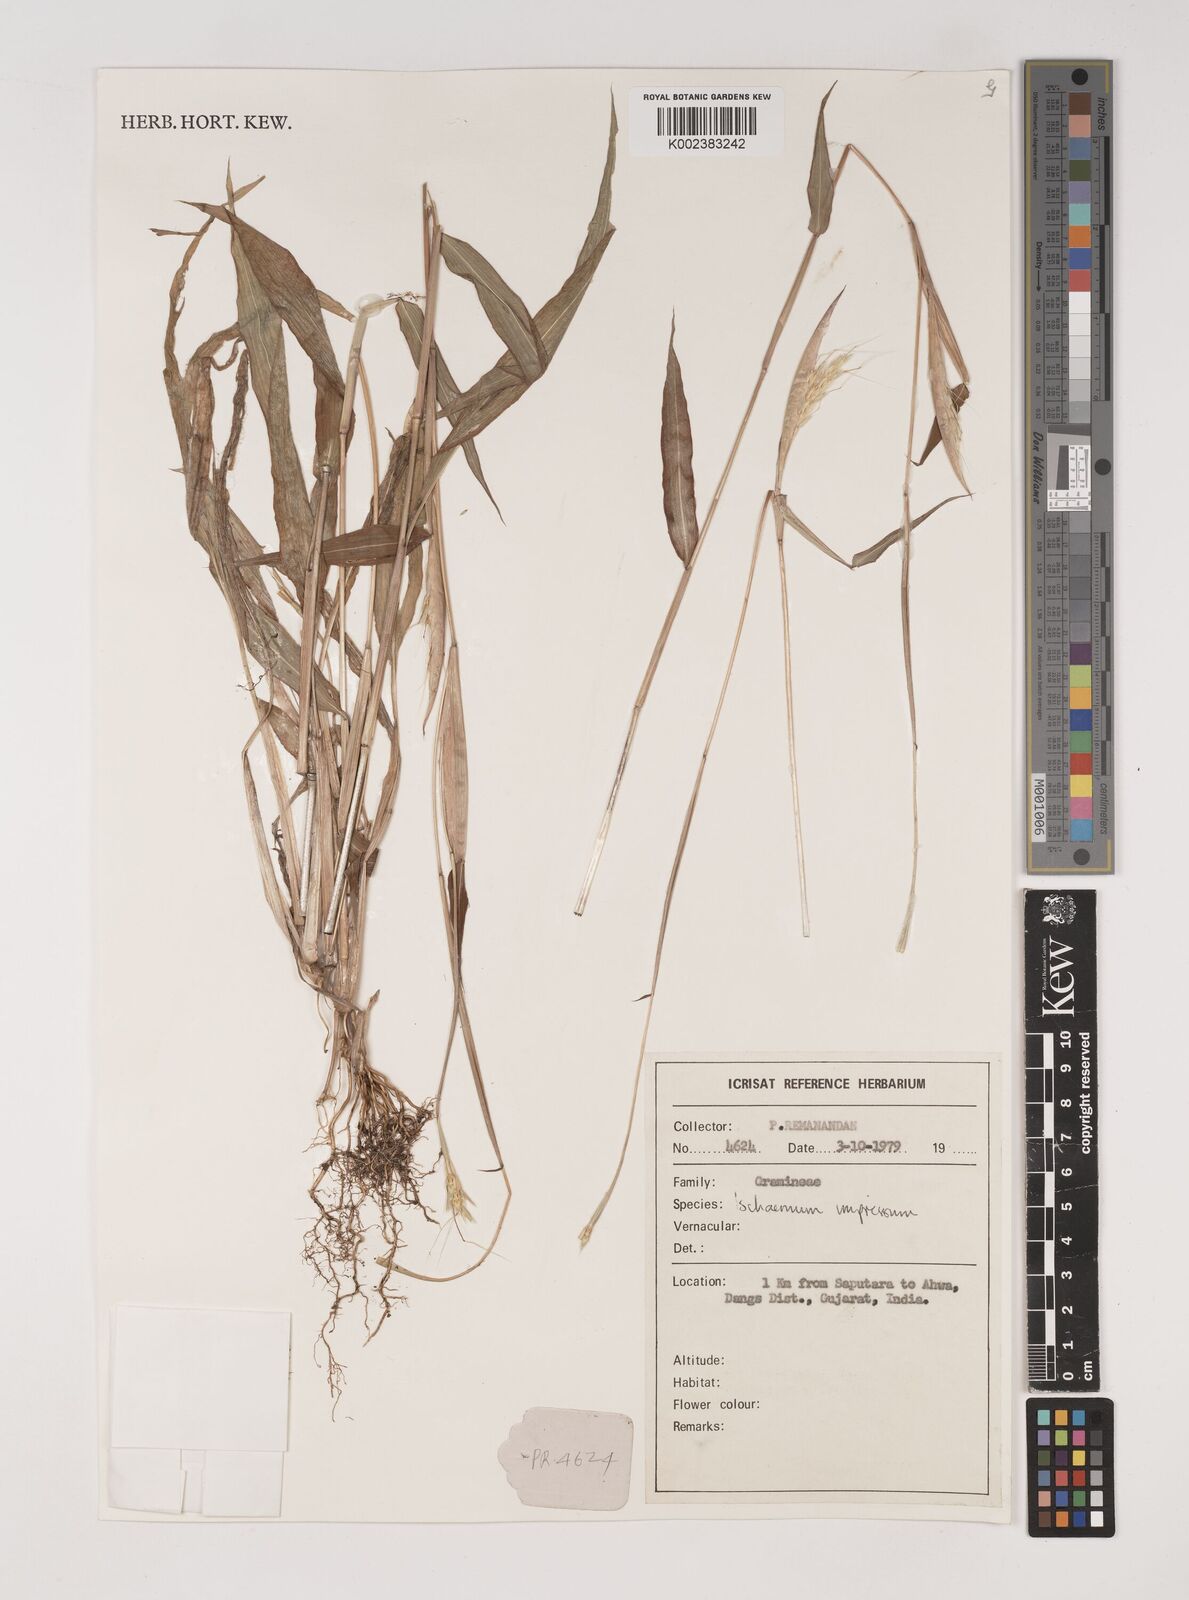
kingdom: Plantae
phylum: Tracheophyta
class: Liliopsida
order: Poales
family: Poaceae
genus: Ischaemum
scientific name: Ischaemum impressum
